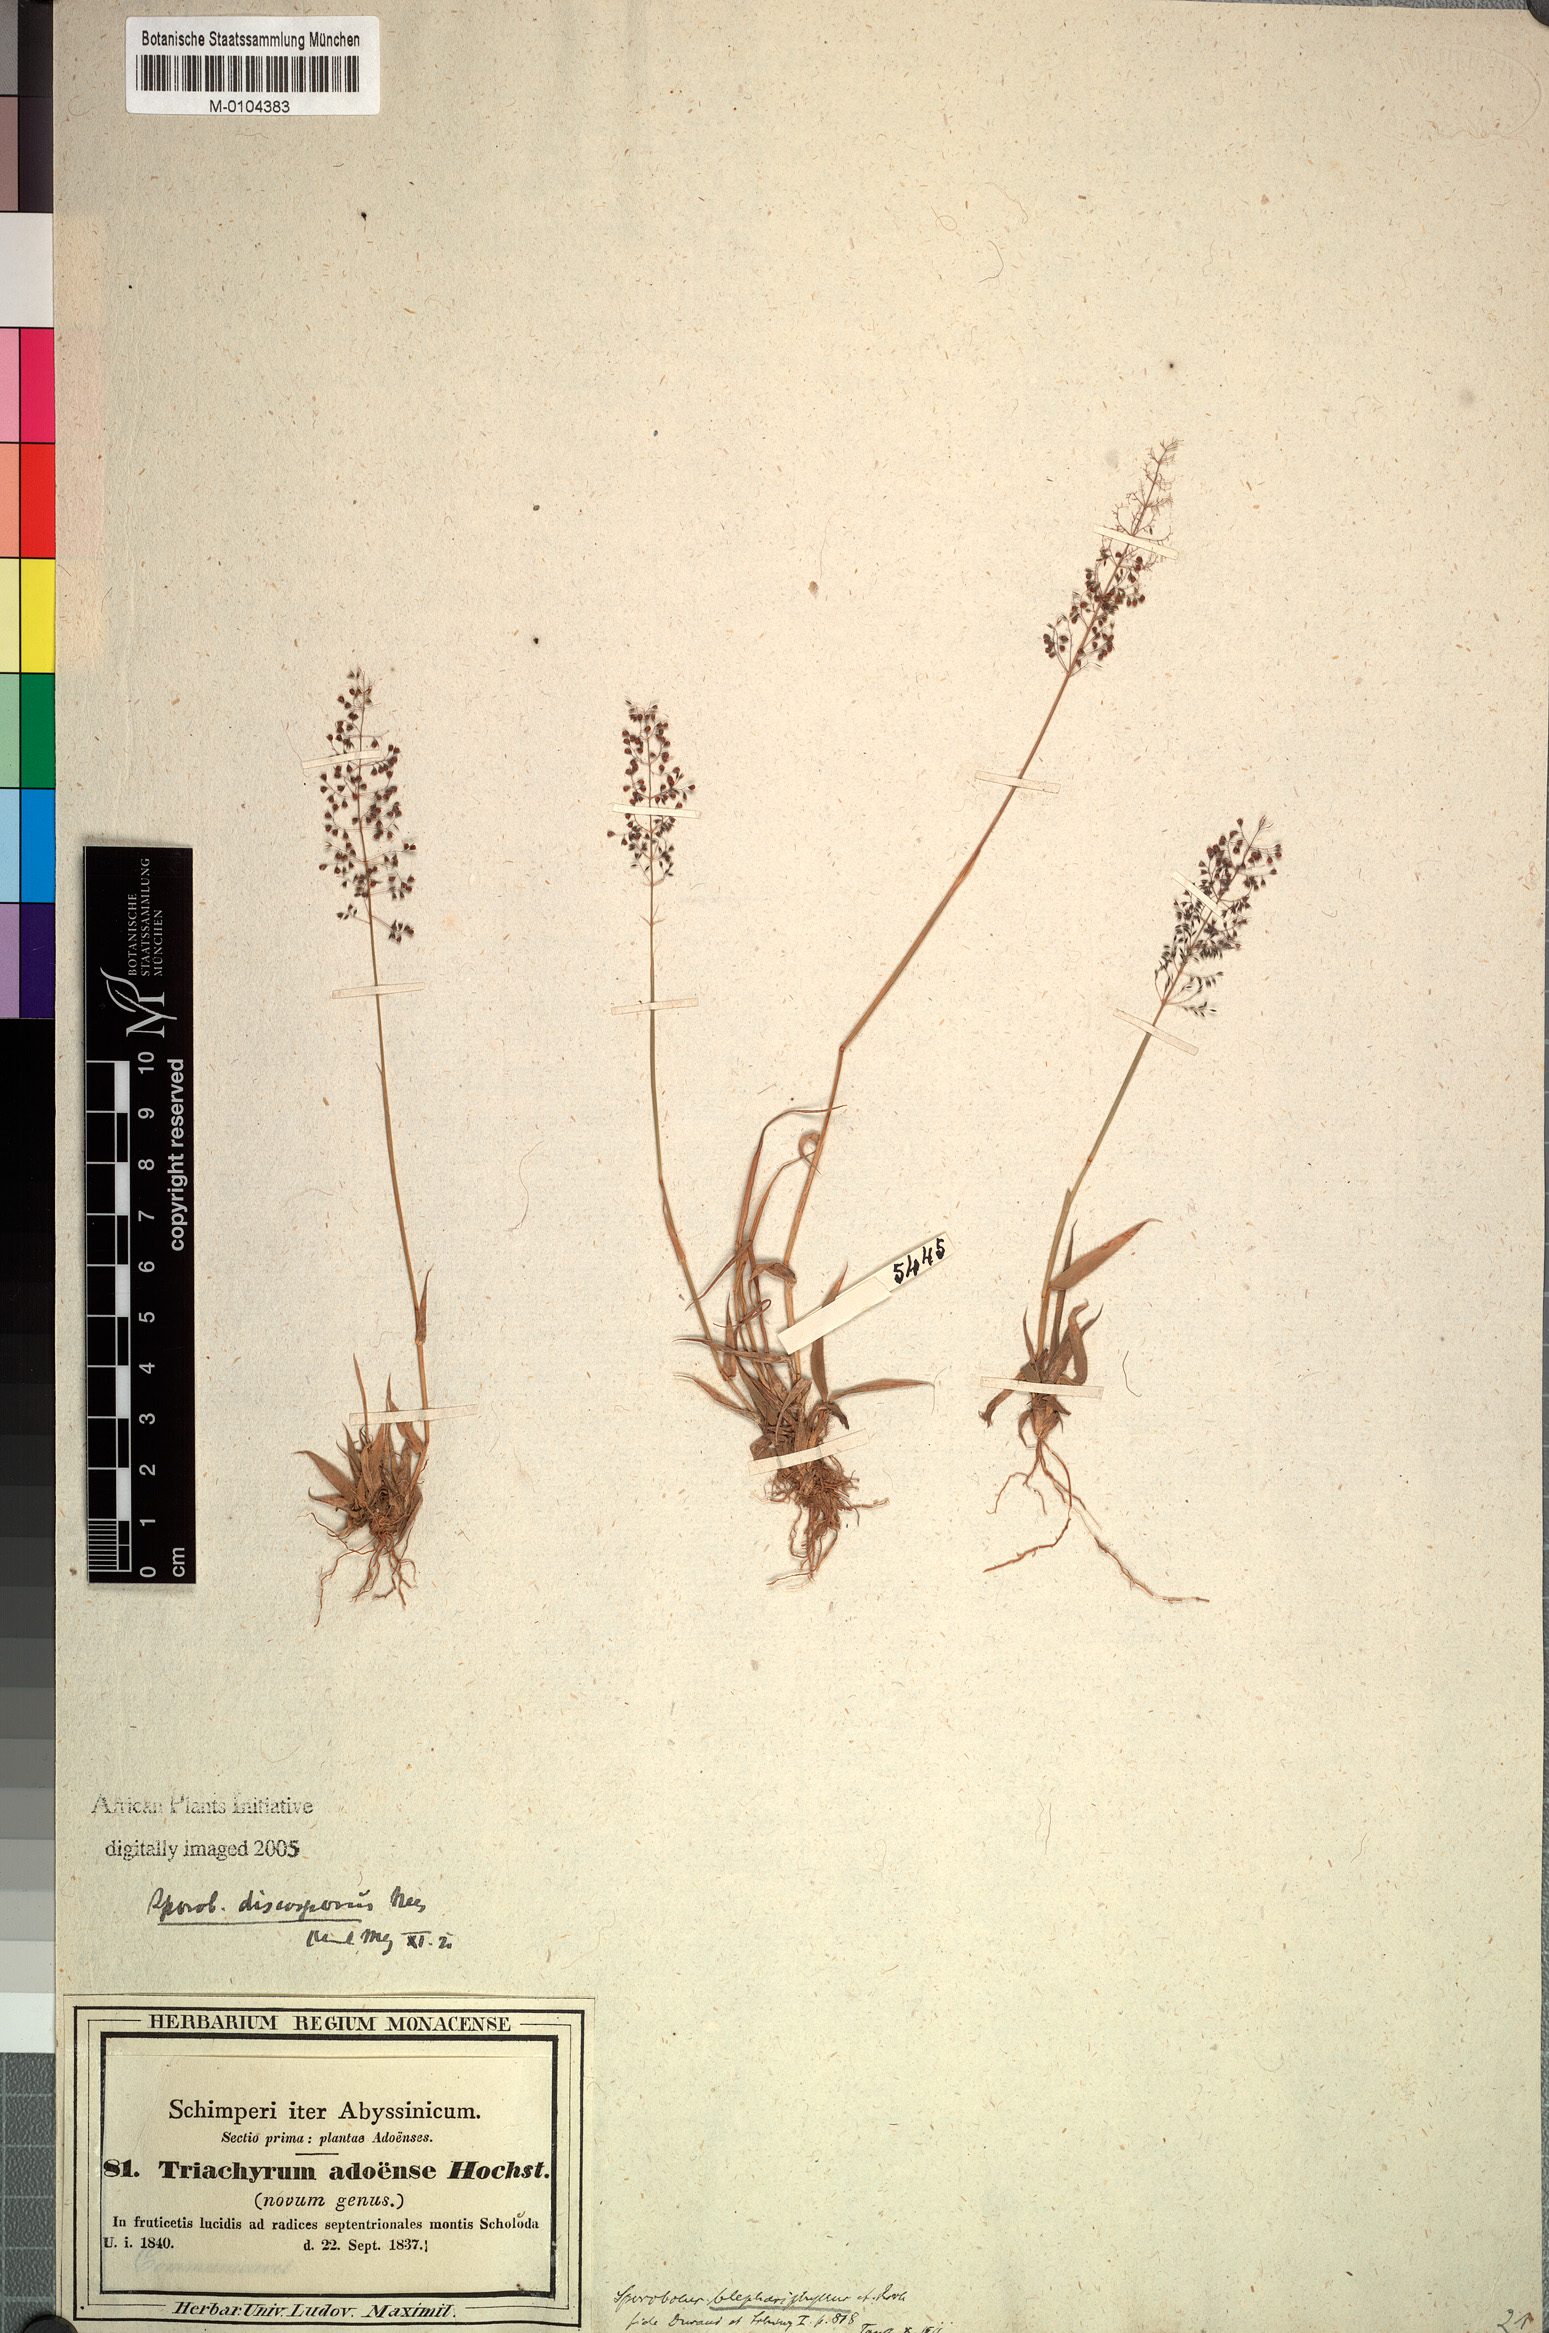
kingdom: Plantae
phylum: Tracheophyta
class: Liliopsida
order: Poales
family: Poaceae
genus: Sporobolus
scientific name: Sporobolus discosporus
